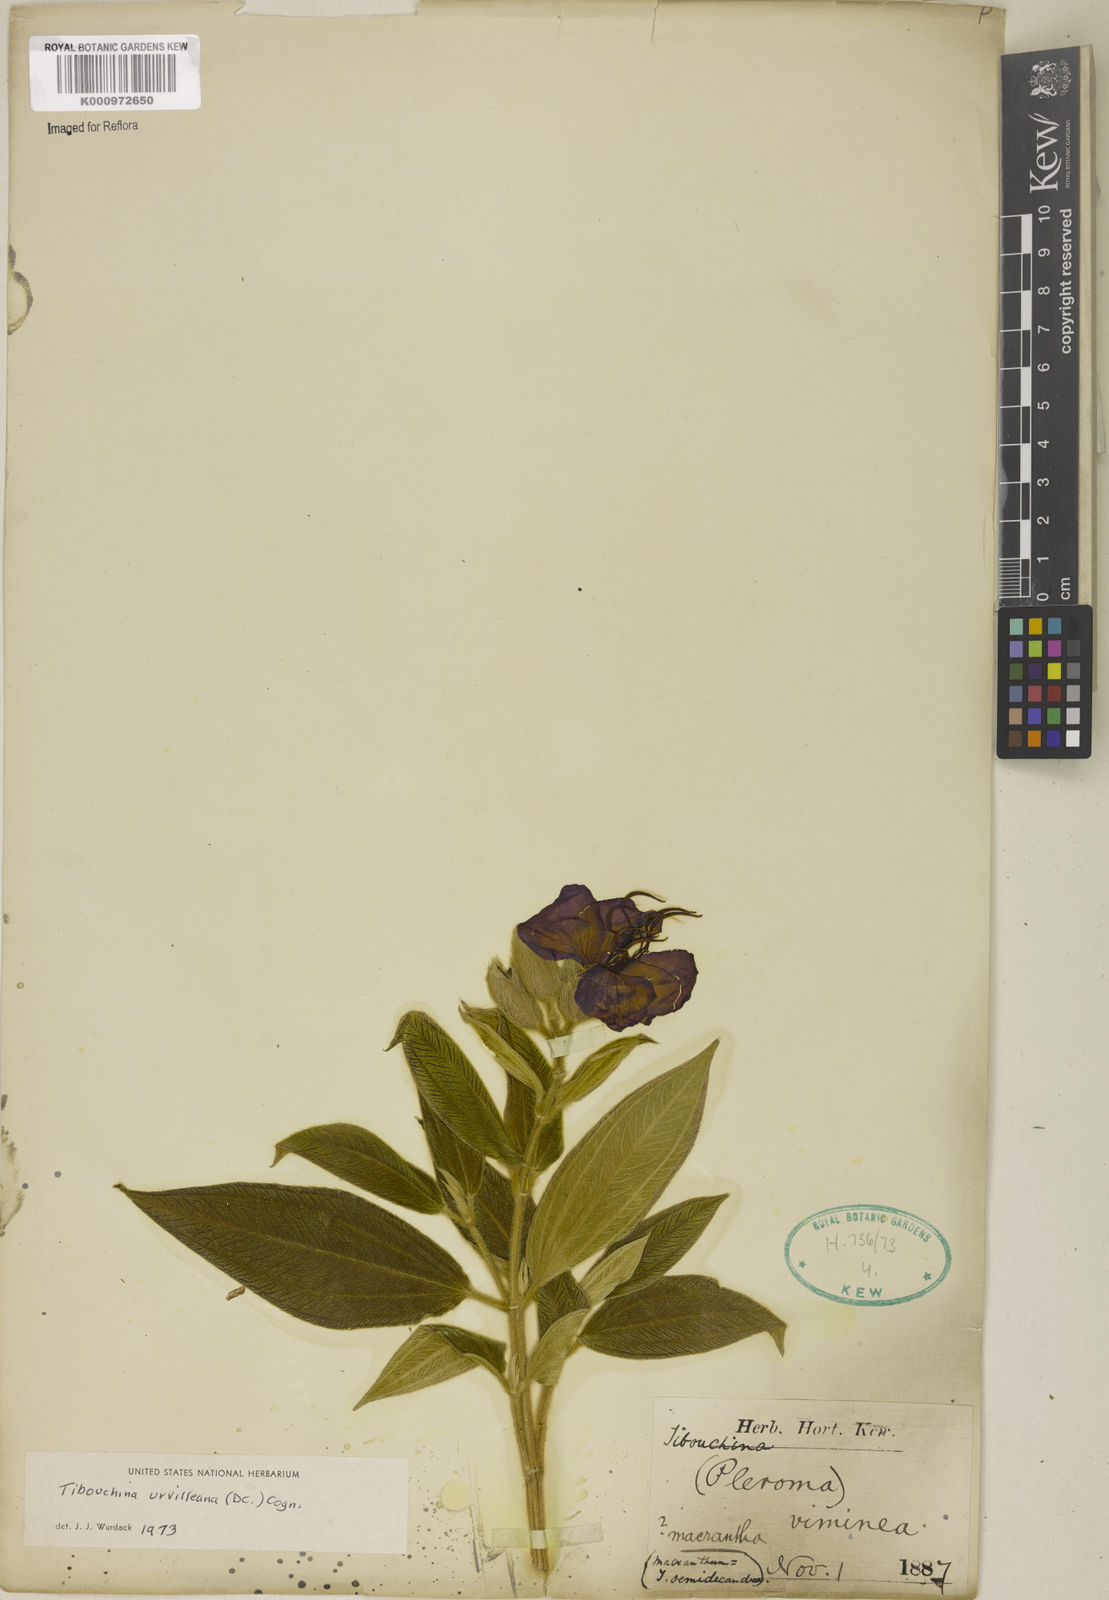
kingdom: Plantae
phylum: Tracheophyta
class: Magnoliopsida
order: Myrtales
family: Melastomataceae
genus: Pleroma
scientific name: Pleroma urvilleanum
